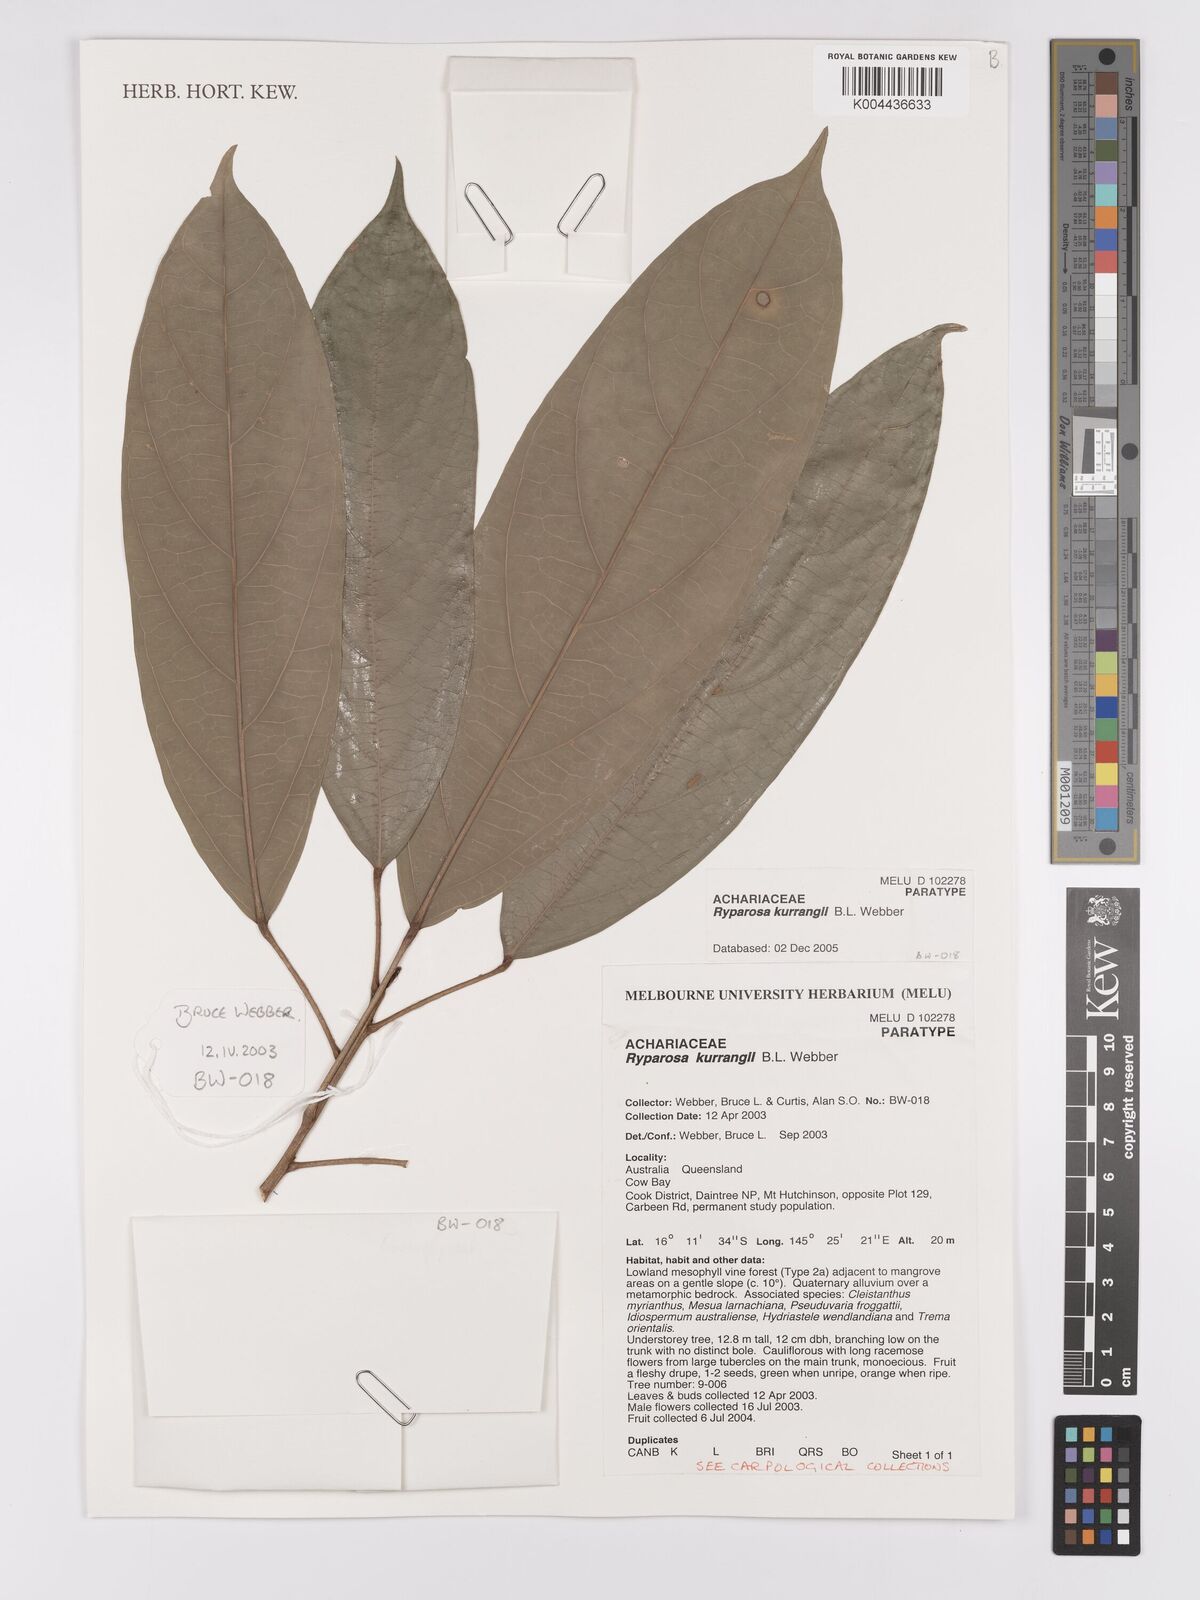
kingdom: Plantae
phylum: Tracheophyta
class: Magnoliopsida
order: Malpighiales
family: Achariaceae
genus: Ryparosa
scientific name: Ryparosa kurrangii
